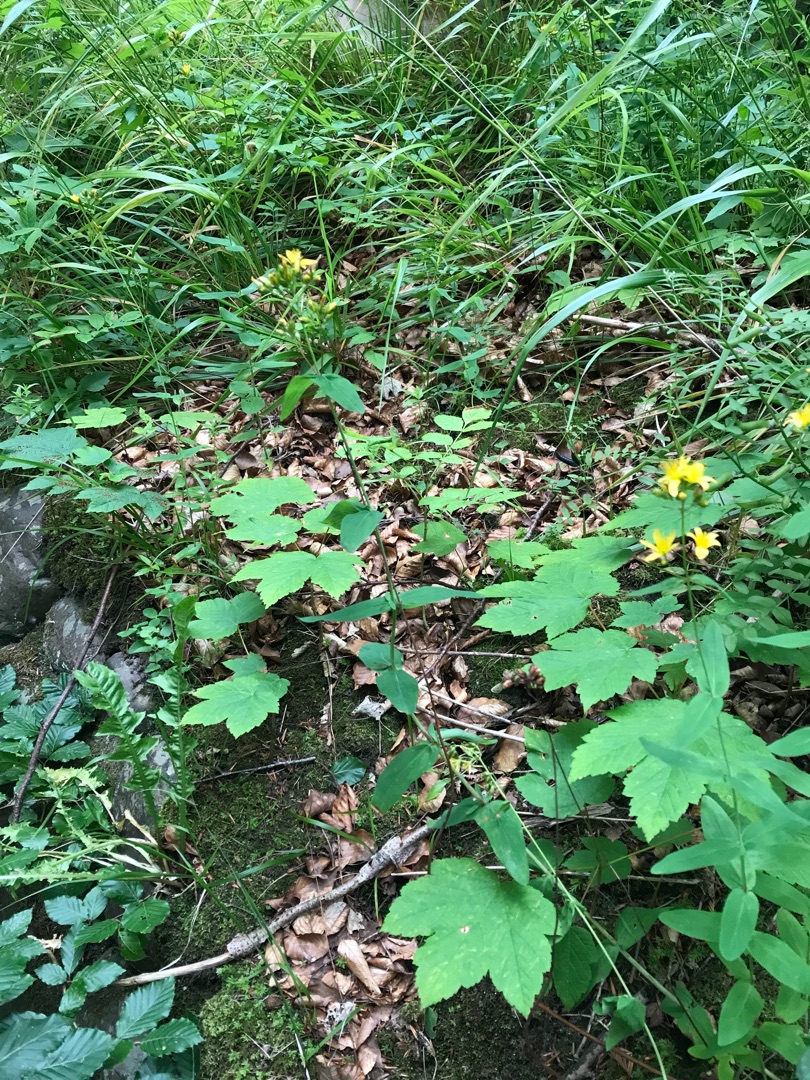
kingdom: Plantae
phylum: Tracheophyta
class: Magnoliopsida
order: Malpighiales
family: Hypericaceae
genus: Hypericum
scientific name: Hypericum montanum
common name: Bjerg-perikon
